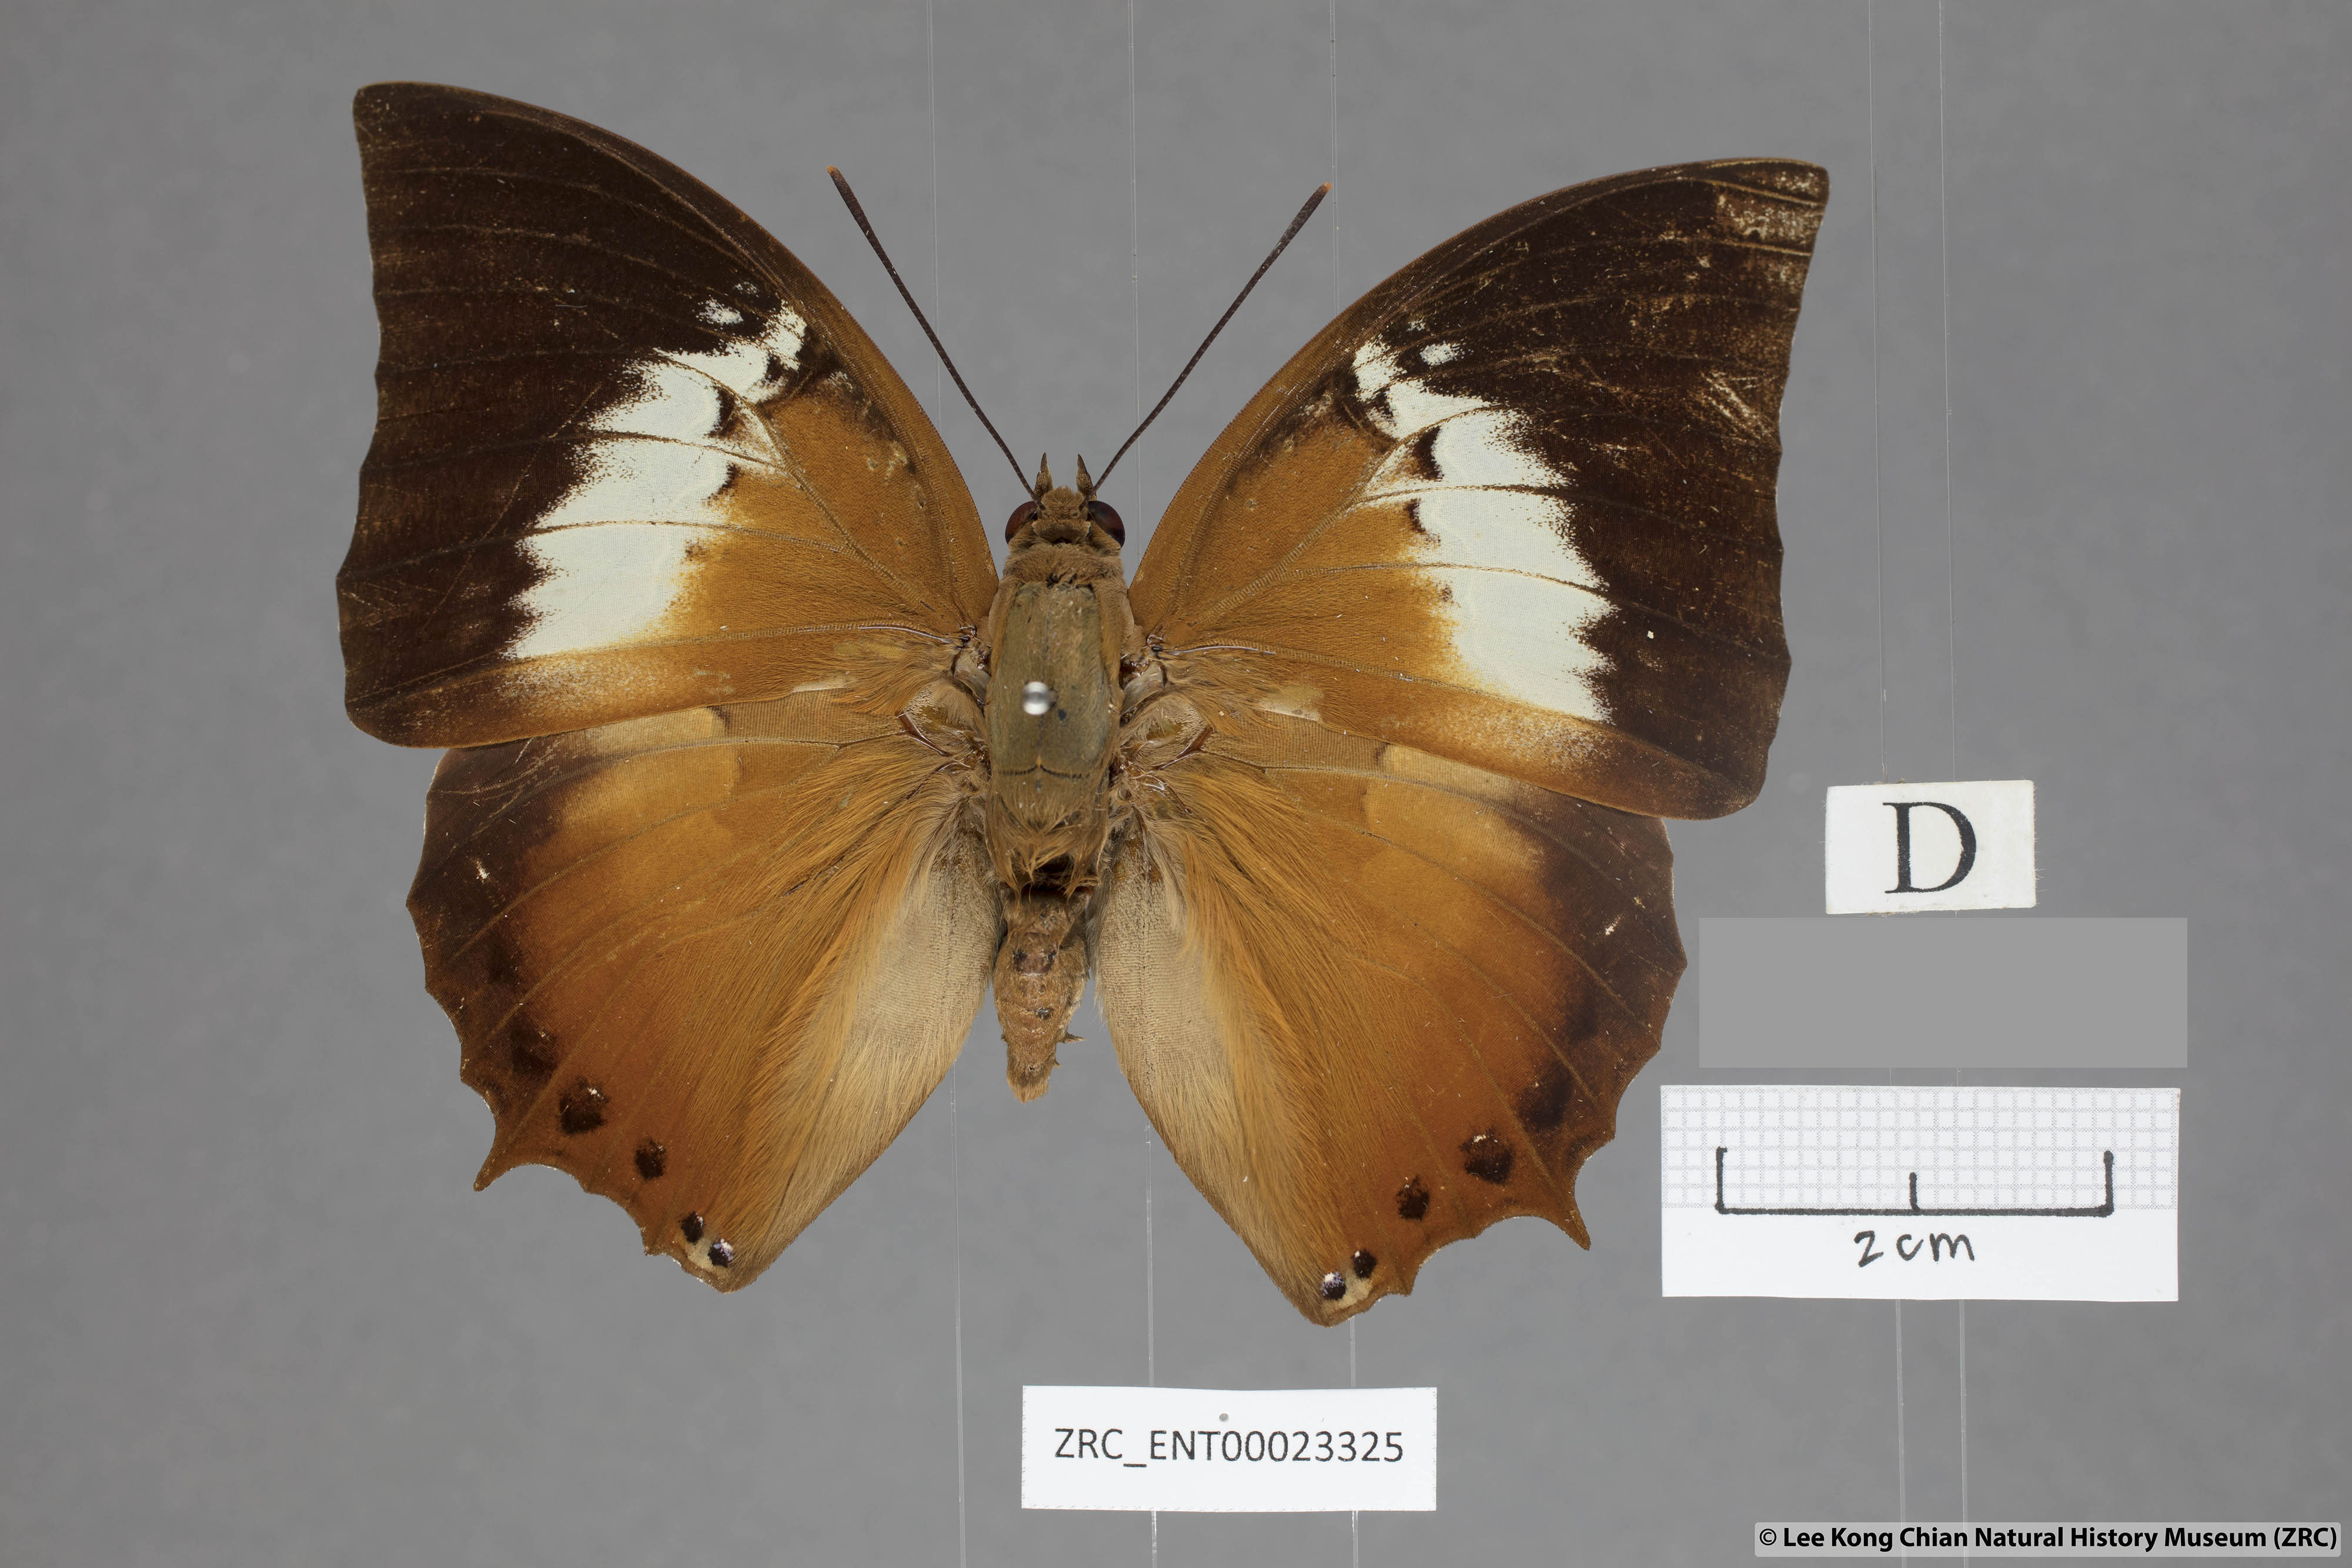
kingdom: Animalia
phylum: Arthropoda
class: Insecta
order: Lepidoptera
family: Nymphalidae
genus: Charaxes
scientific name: Charaxes borneensis
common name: White-banded rajah
